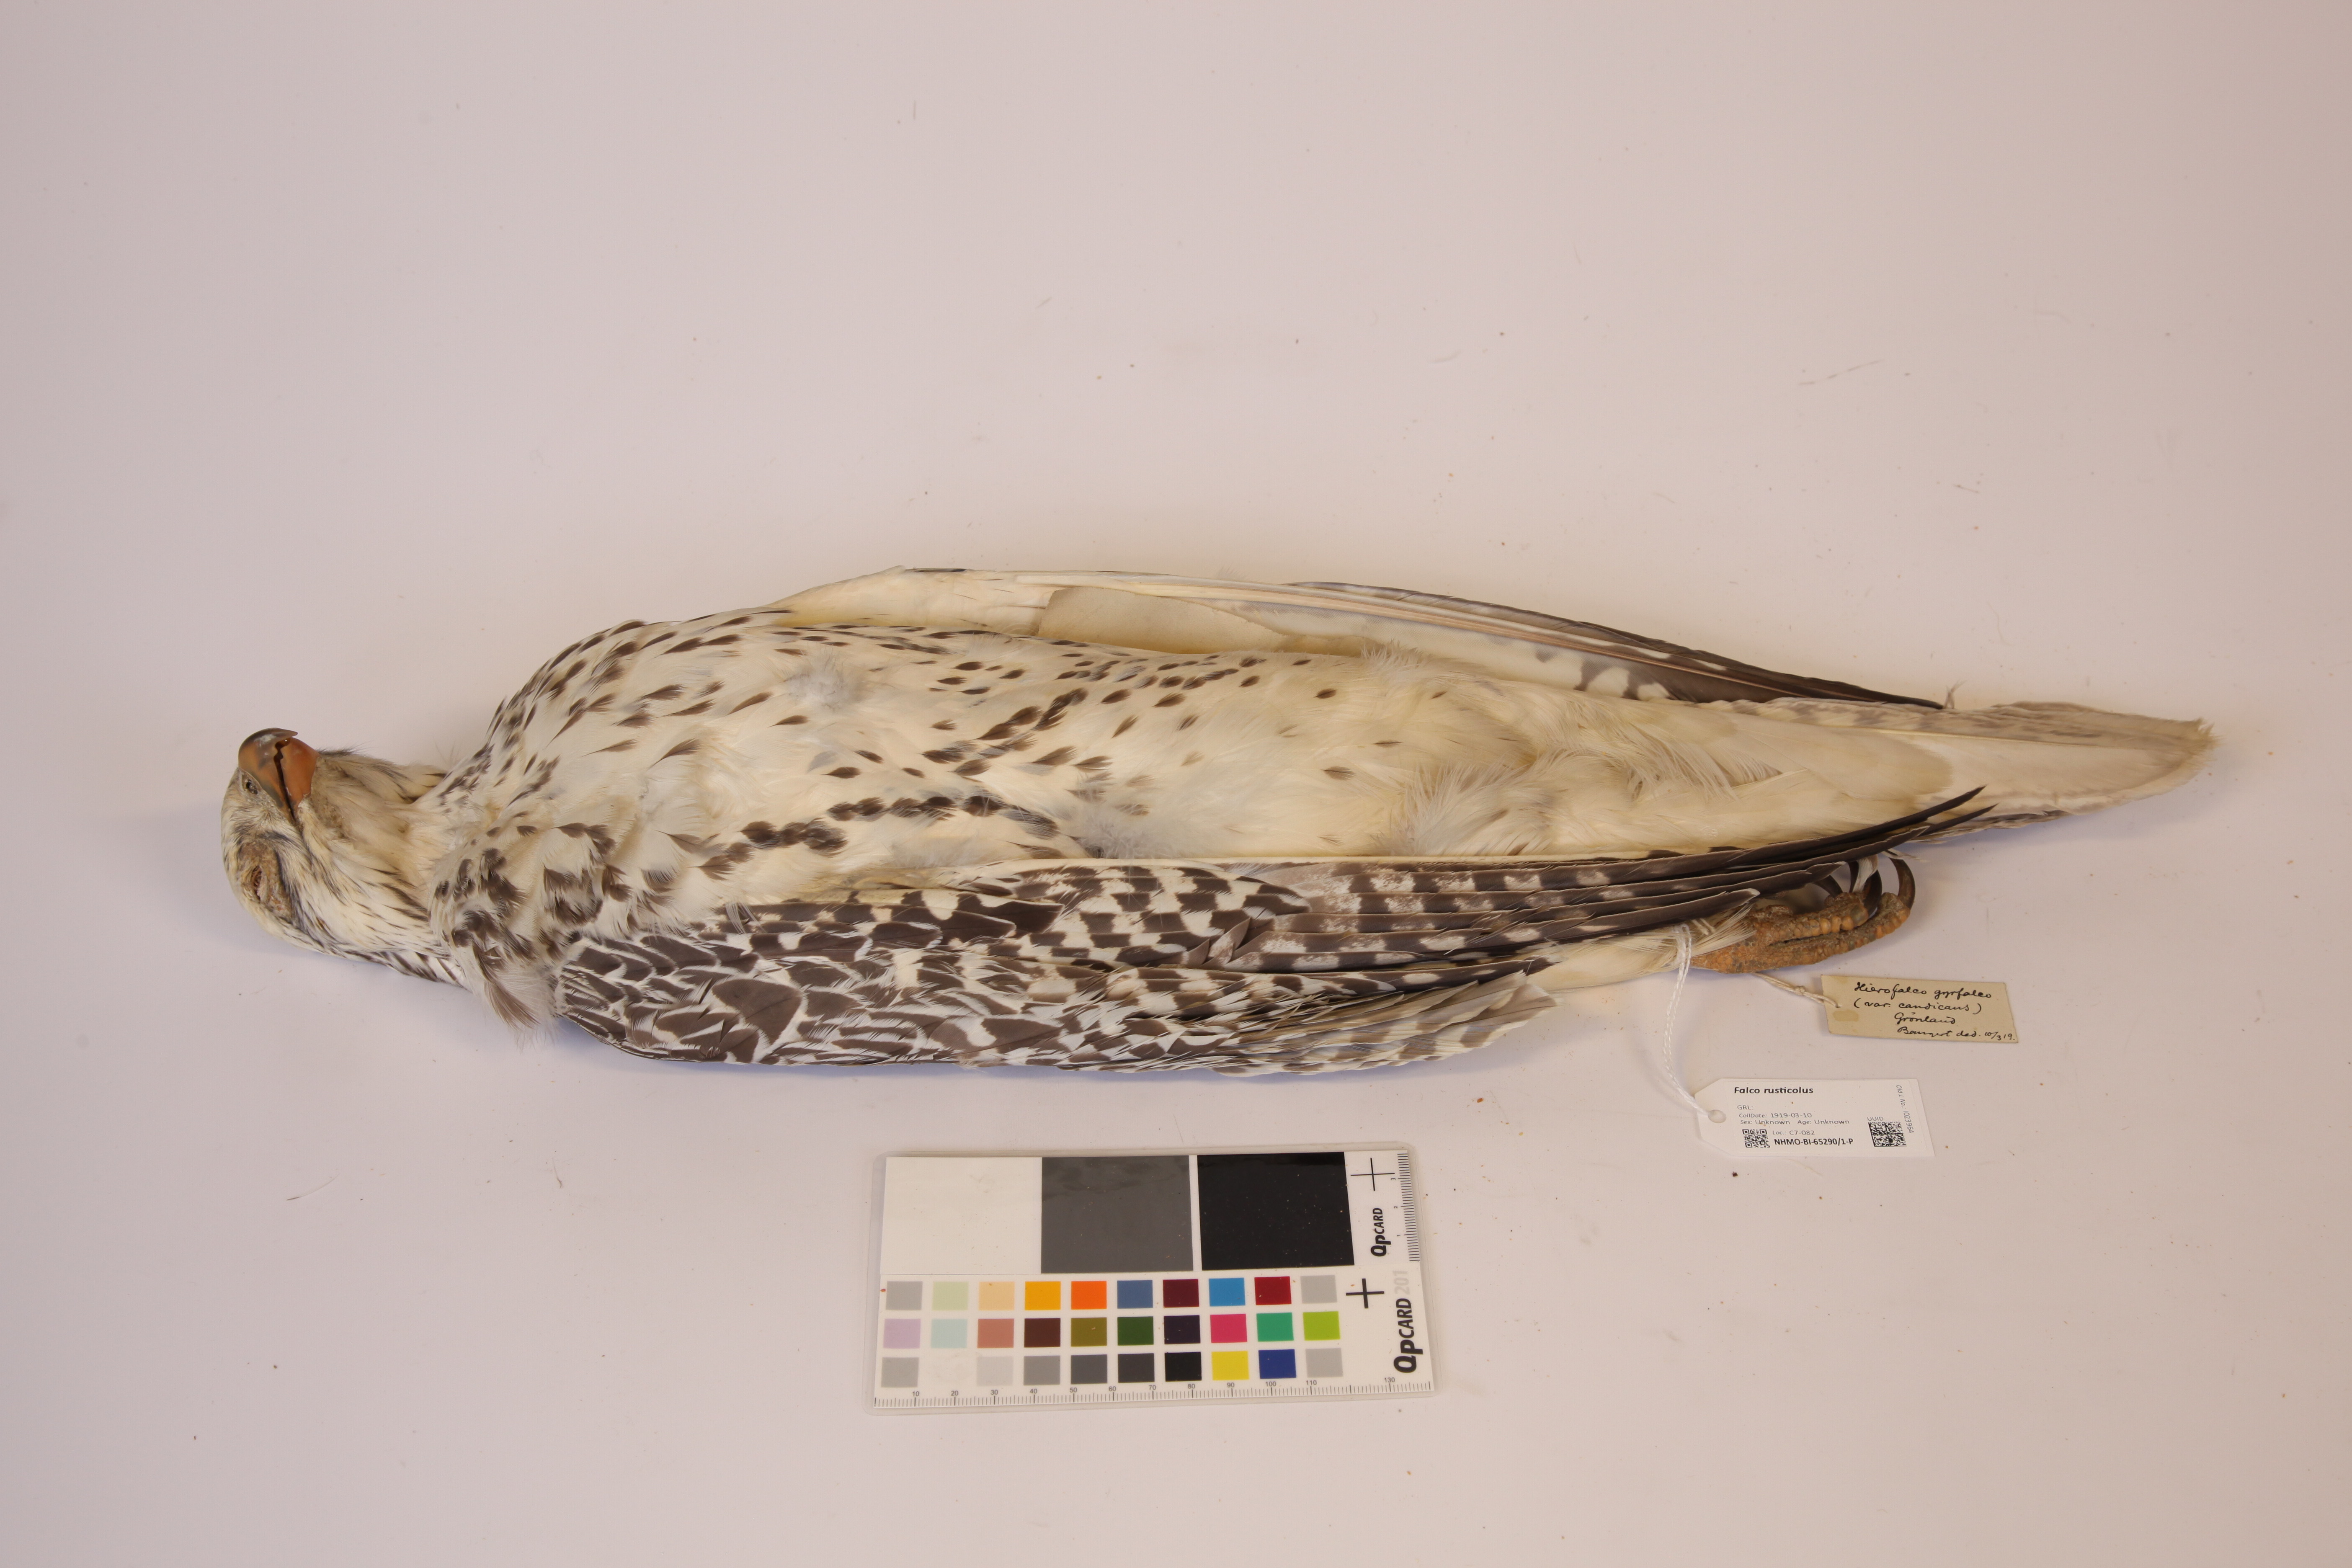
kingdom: Animalia
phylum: Chordata
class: Aves
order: Falconiformes
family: Falconidae
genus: Falco
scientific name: Falco rusticolus
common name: Gyrfalcon
